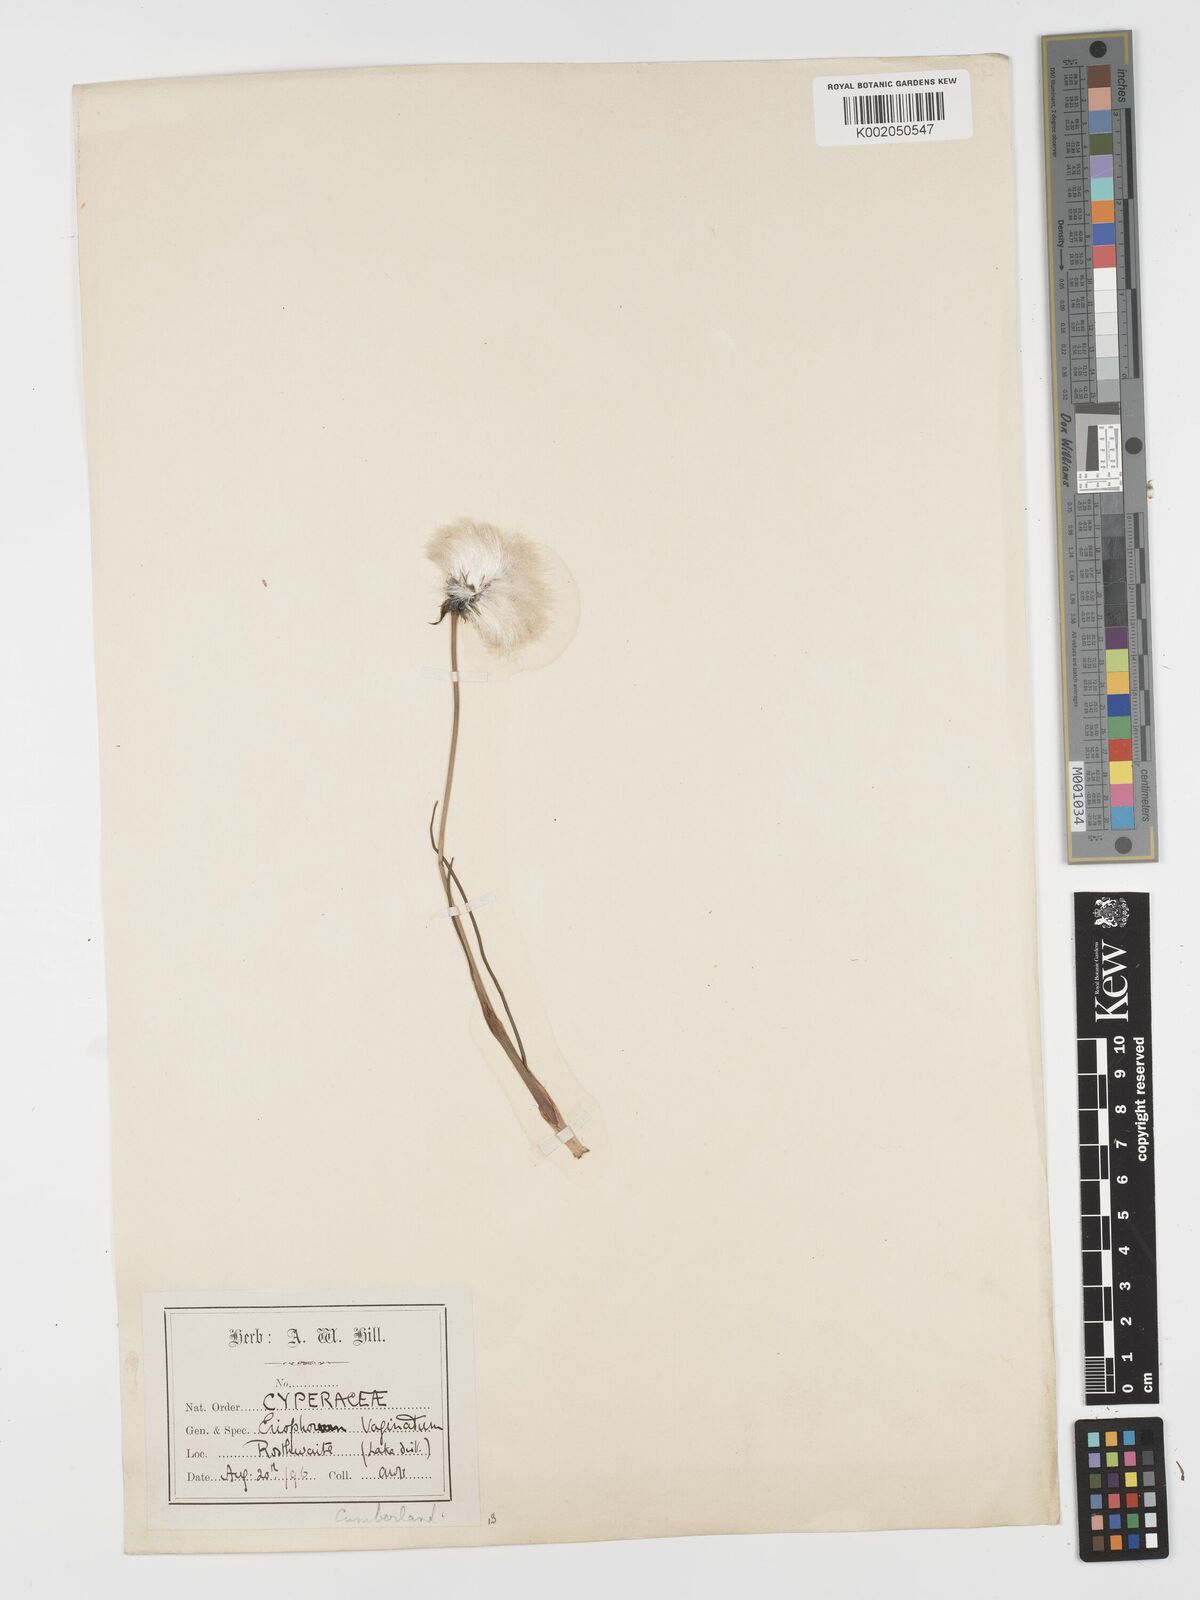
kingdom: Plantae
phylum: Tracheophyta
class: Liliopsida
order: Poales
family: Cyperaceae
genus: Eriophorum
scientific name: Eriophorum vaginatum
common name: Hare's-tail cottongrass
